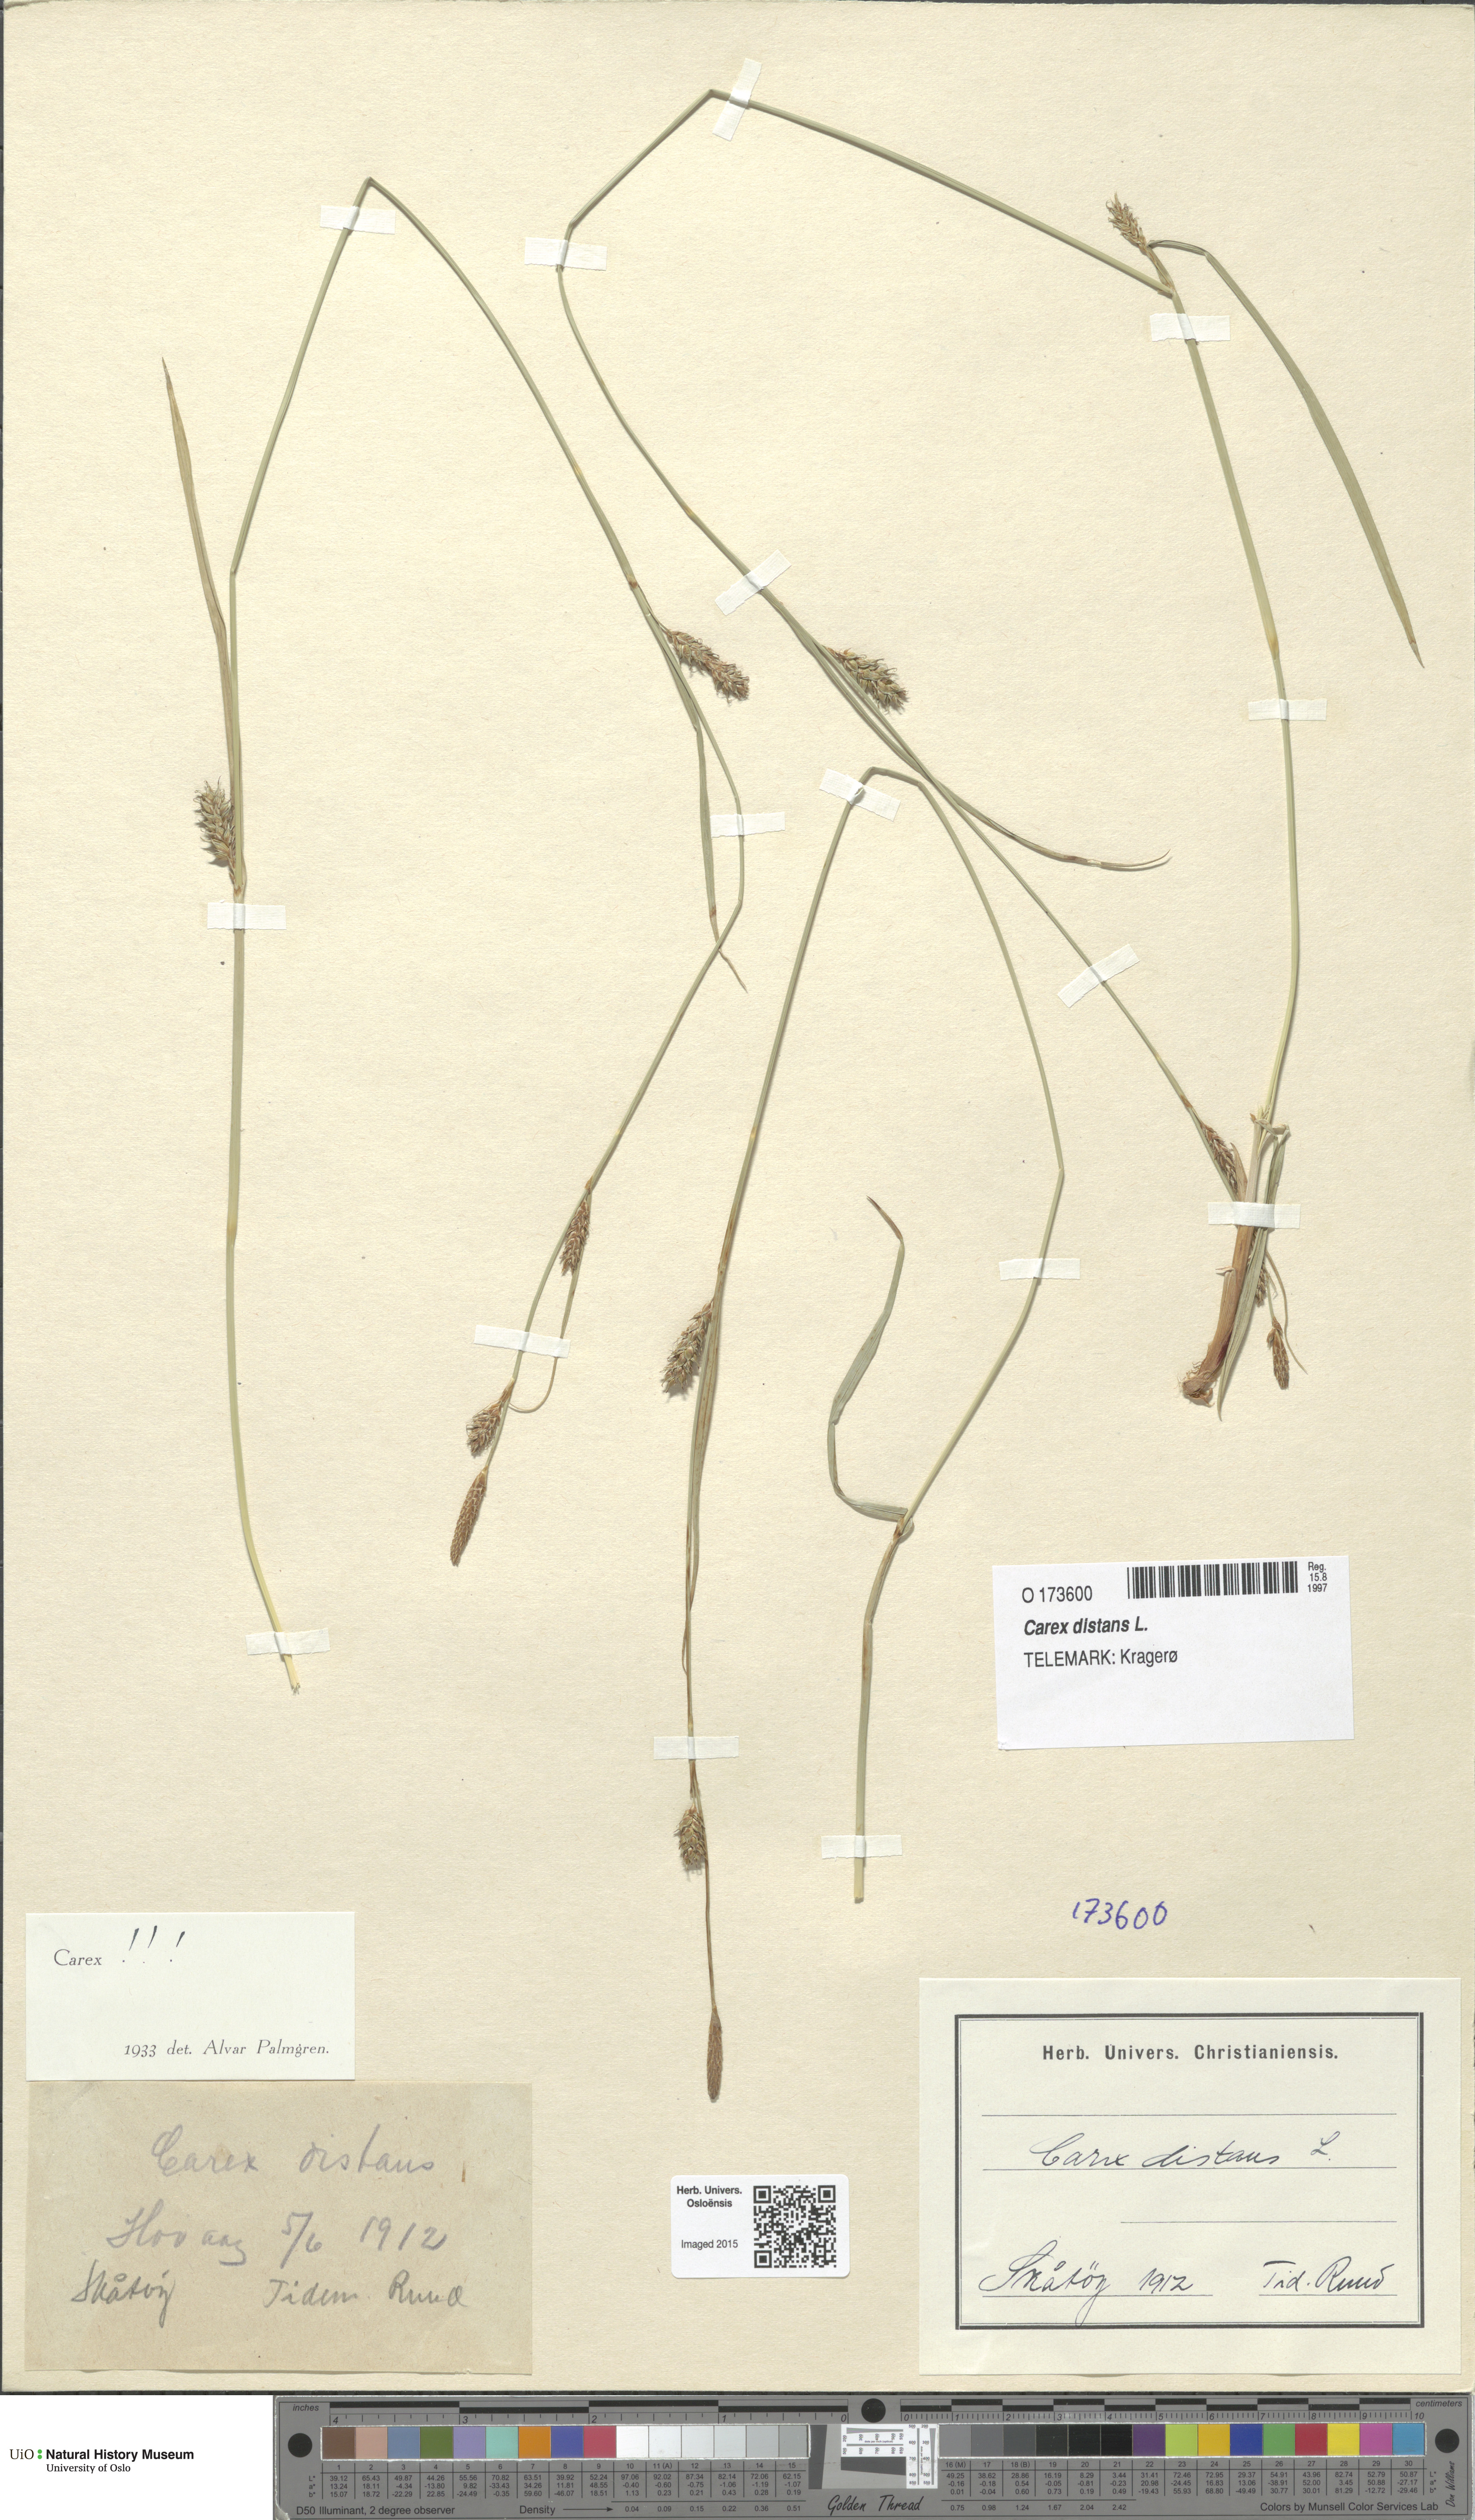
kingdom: Plantae
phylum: Tracheophyta
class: Liliopsida
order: Poales
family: Cyperaceae
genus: Carex
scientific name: Carex distans
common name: Distant sedge
